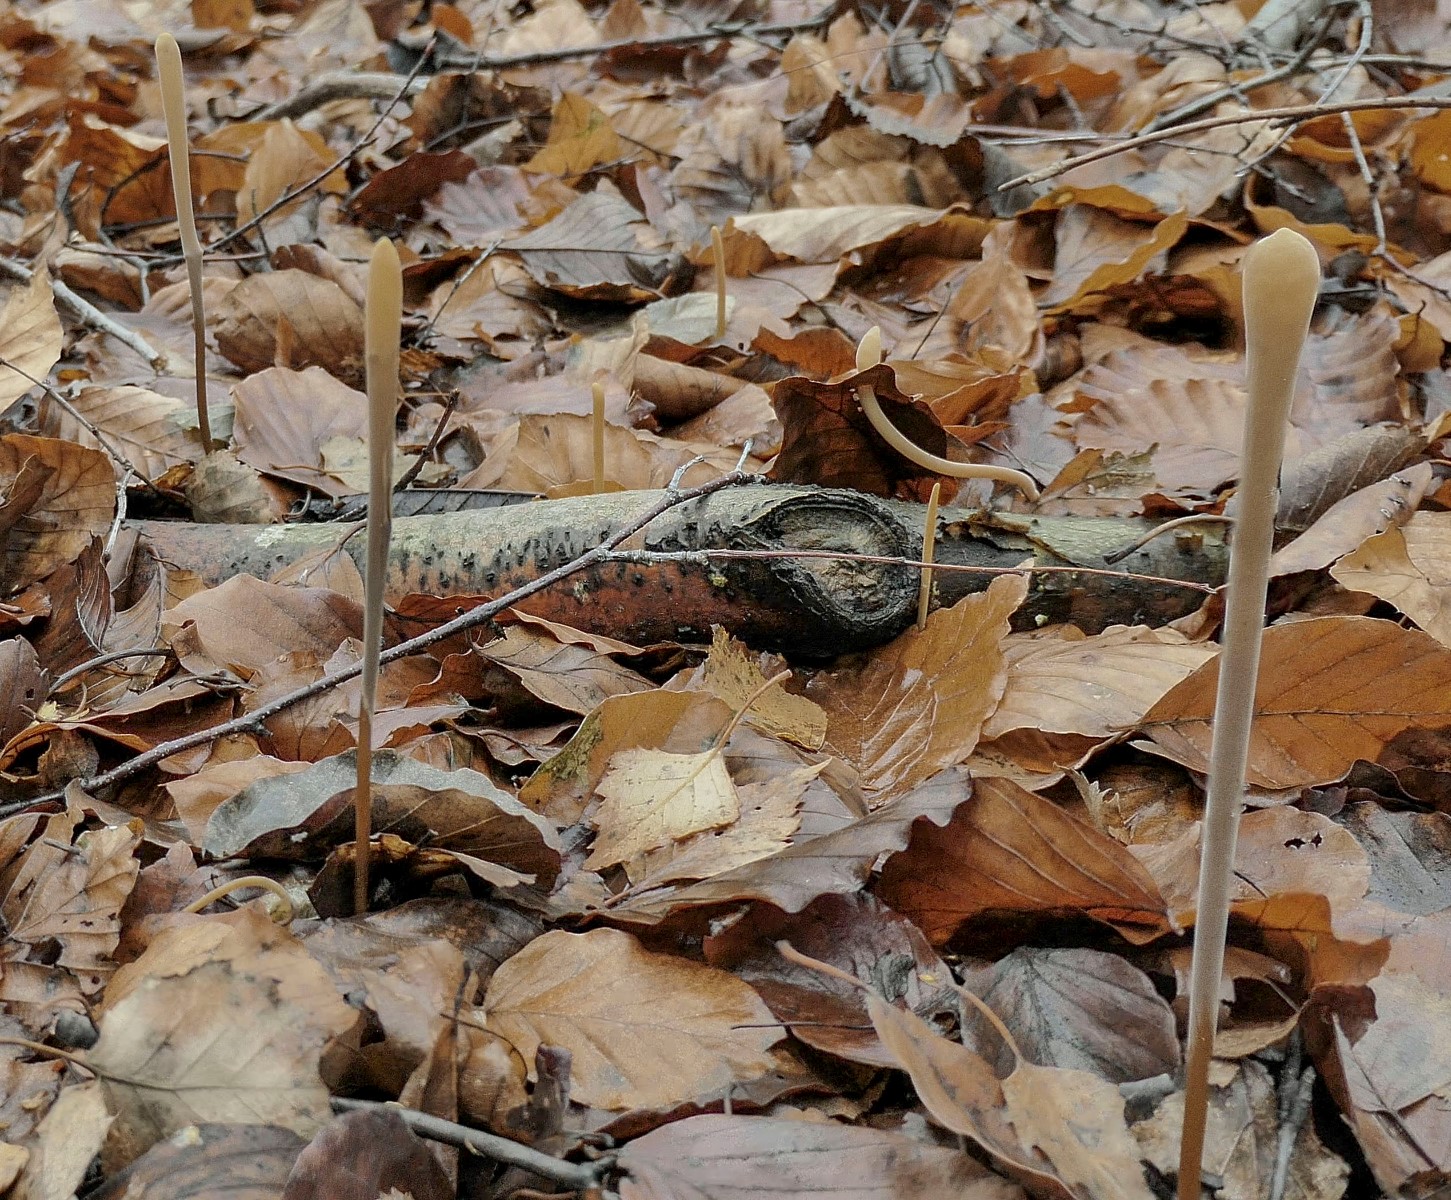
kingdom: Fungi
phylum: Basidiomycota
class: Agaricomycetes
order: Agaricales
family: Typhulaceae
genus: Typhula
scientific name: Typhula fistulosa
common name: pibet rørkølle
